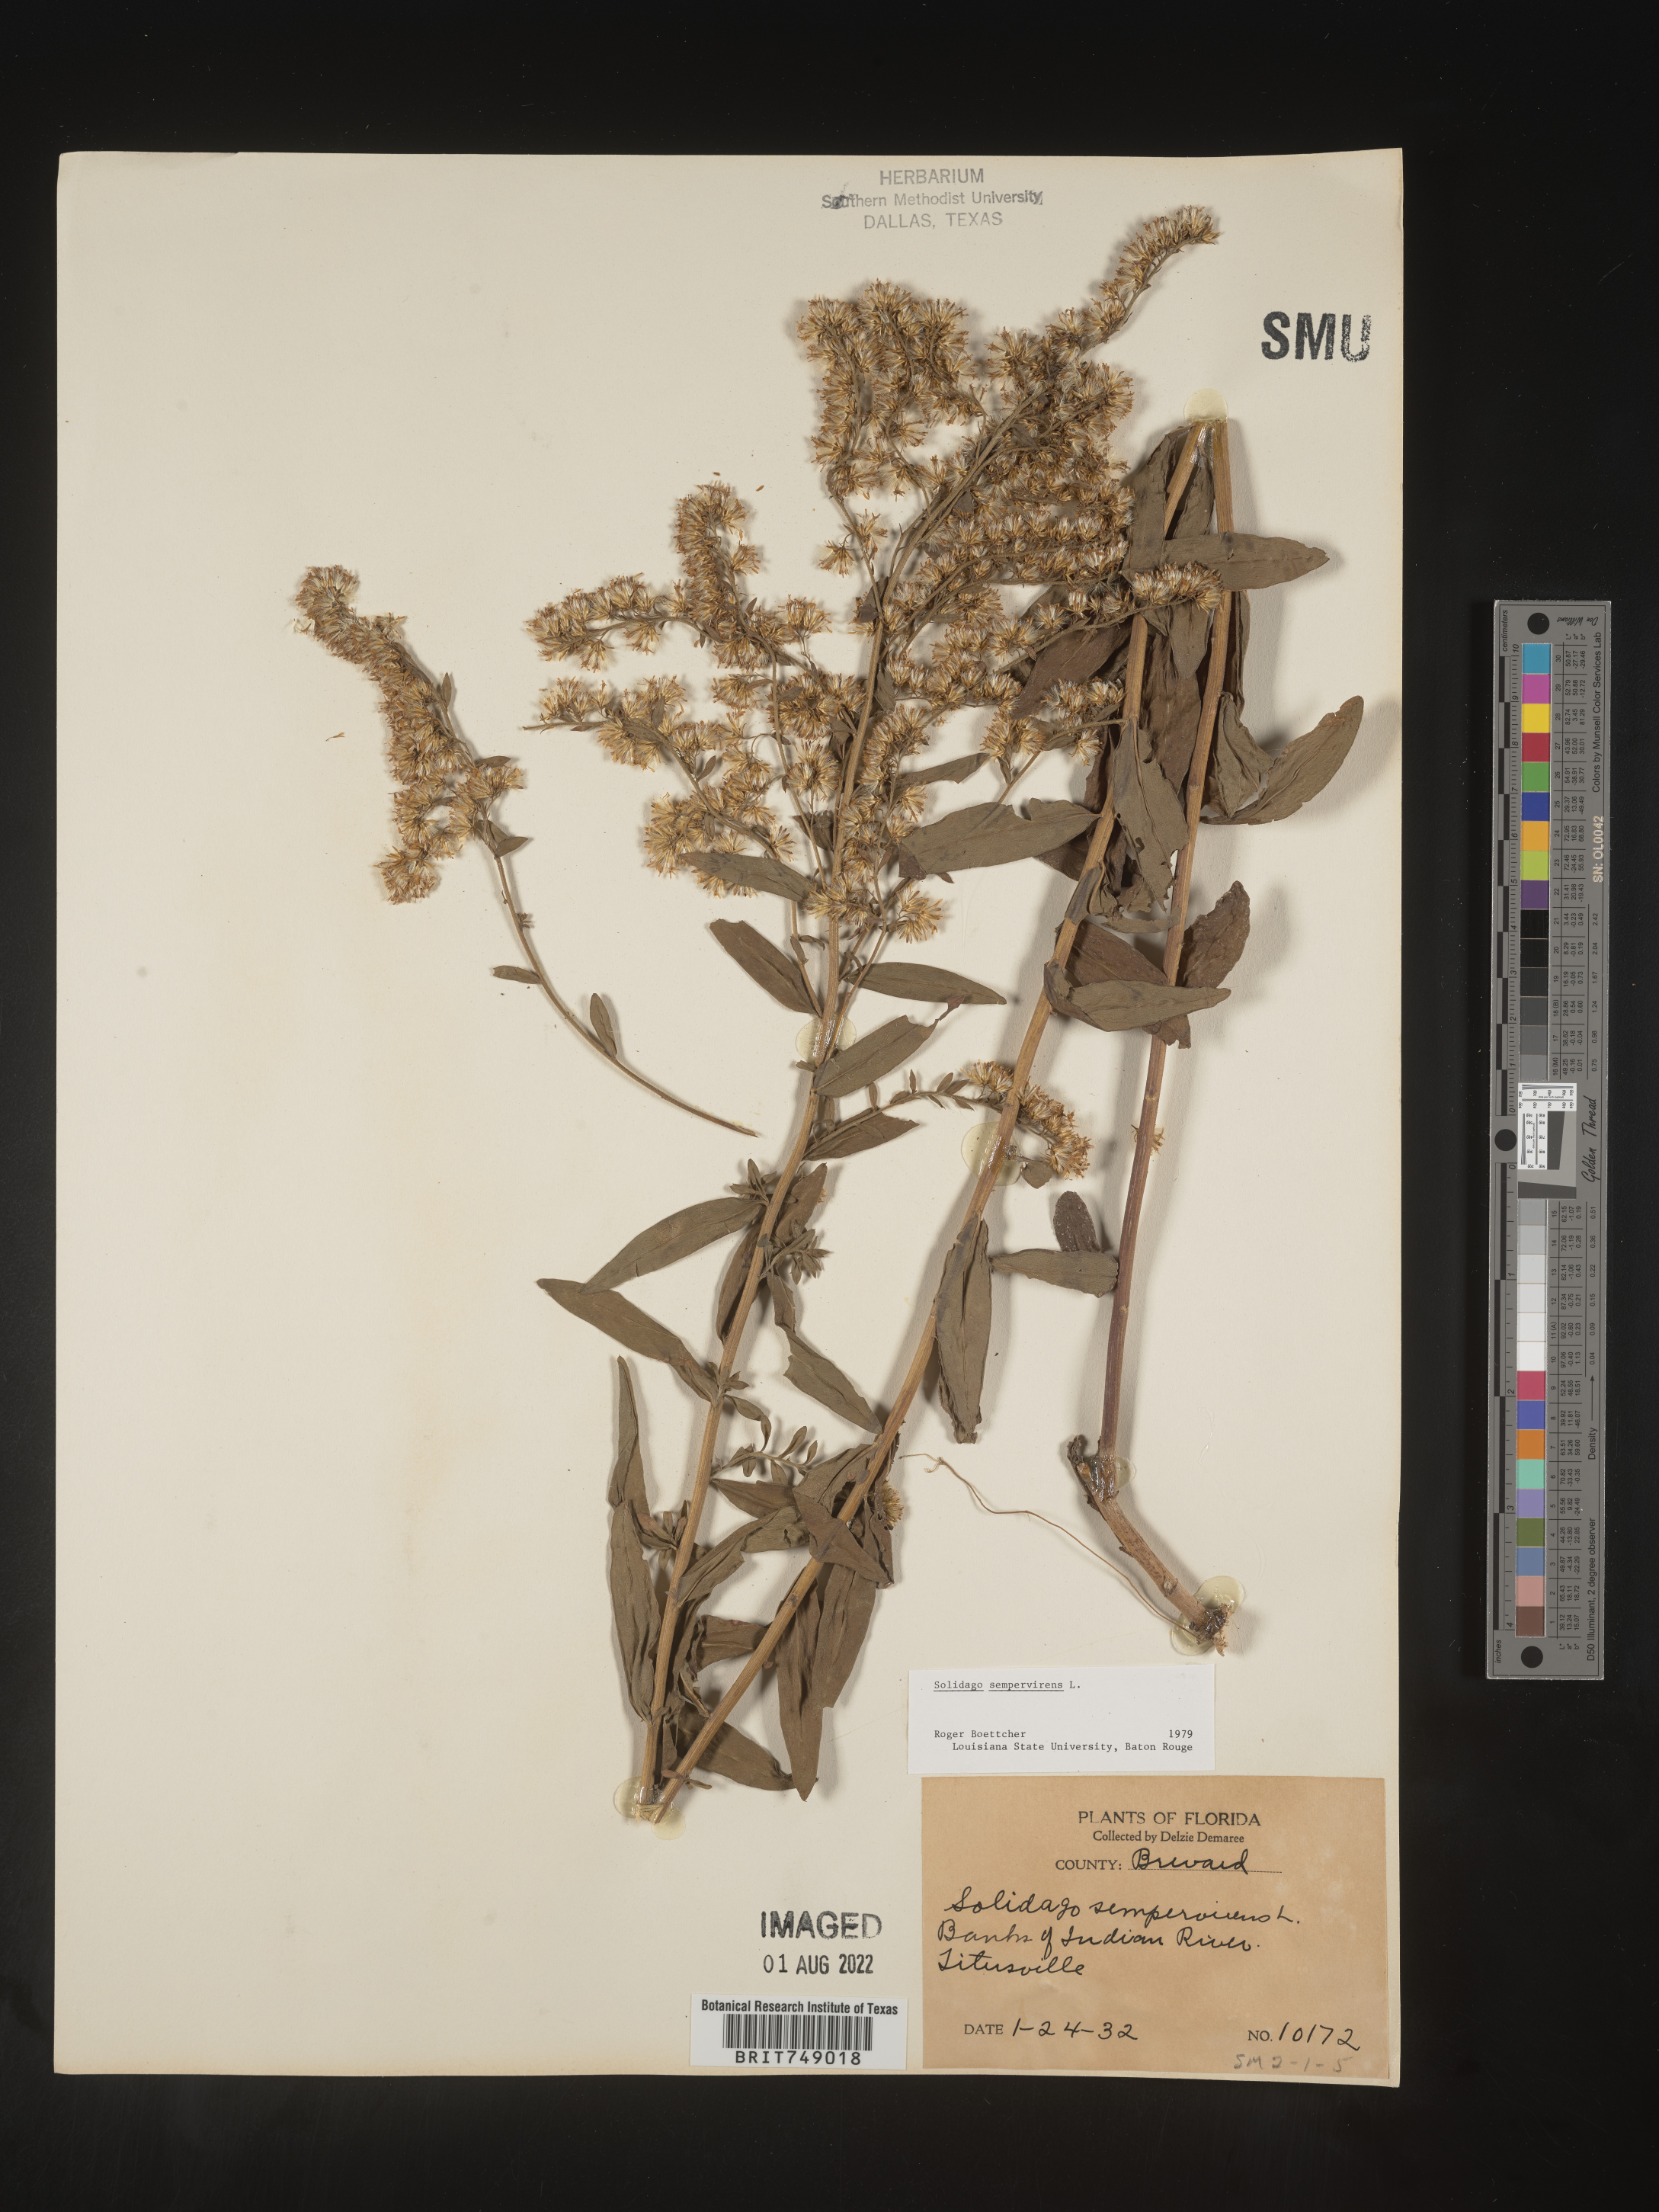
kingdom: Plantae
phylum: Tracheophyta
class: Magnoliopsida
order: Asterales
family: Asteraceae
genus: Solidago
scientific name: Solidago sempervirens
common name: Salt-marsh goldenrod
